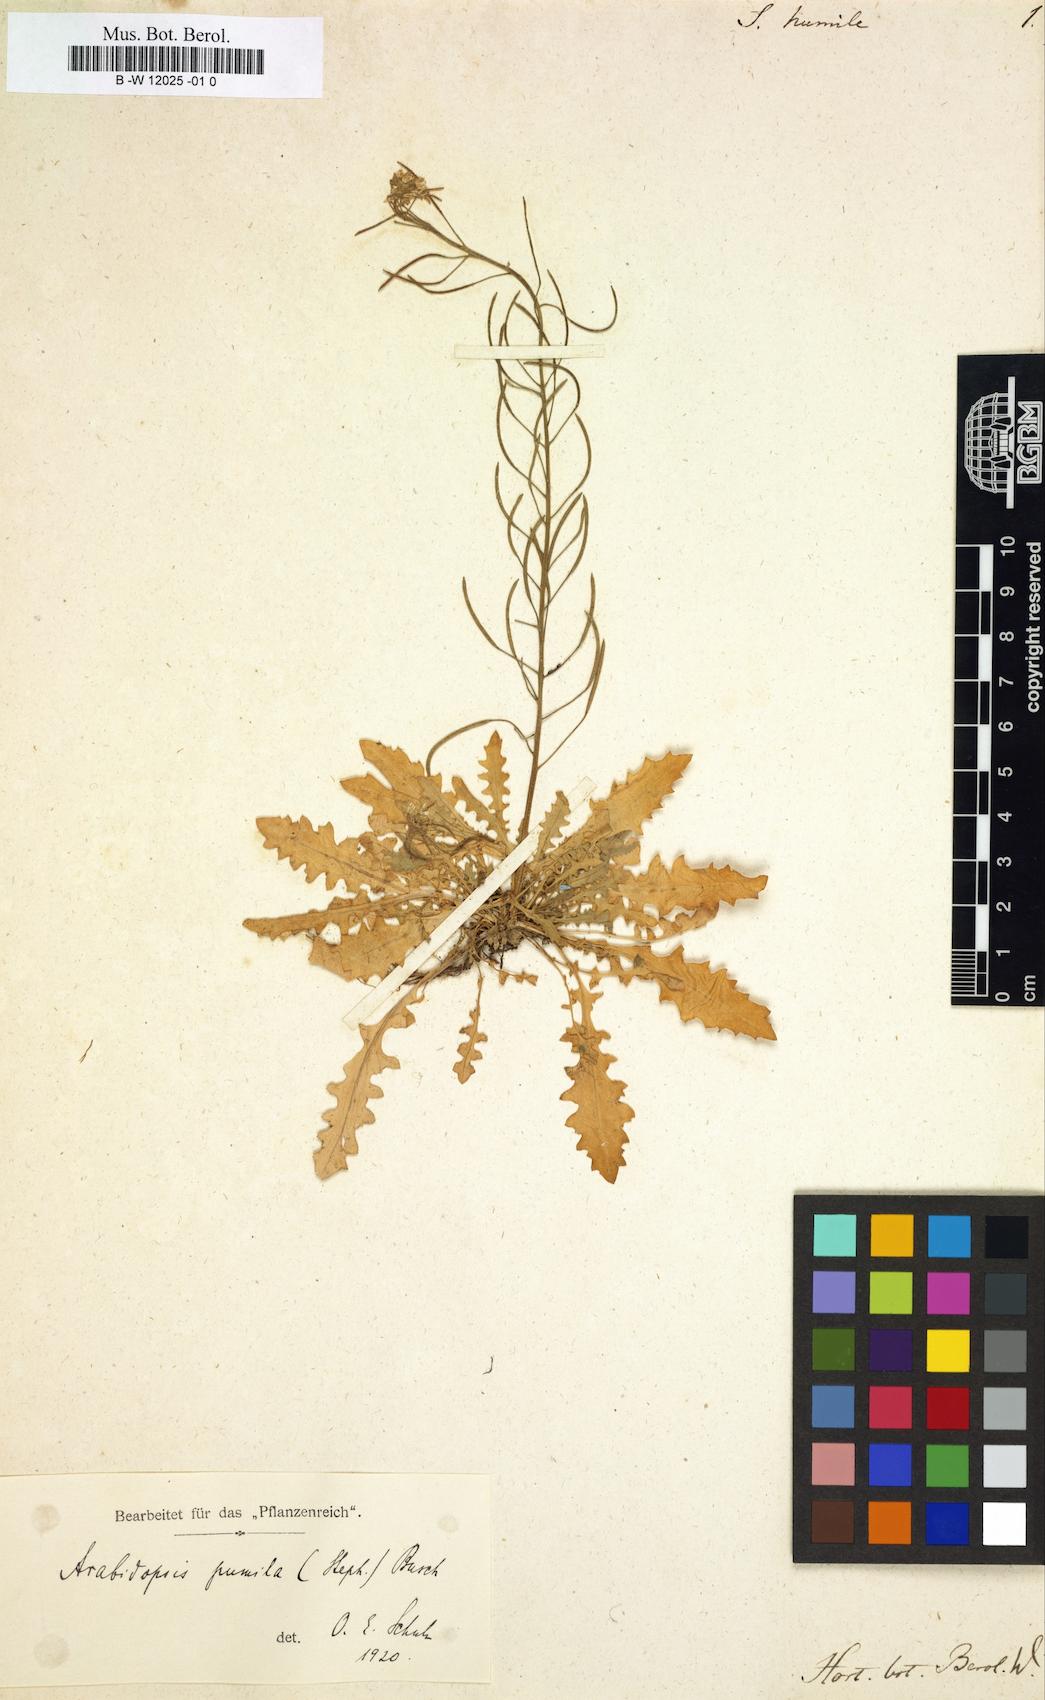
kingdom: Plantae
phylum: Tracheophyta
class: Magnoliopsida
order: Brassicales
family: Brassicaceae
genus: Braya
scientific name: Braya humilis
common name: Alpine northern rockcress
